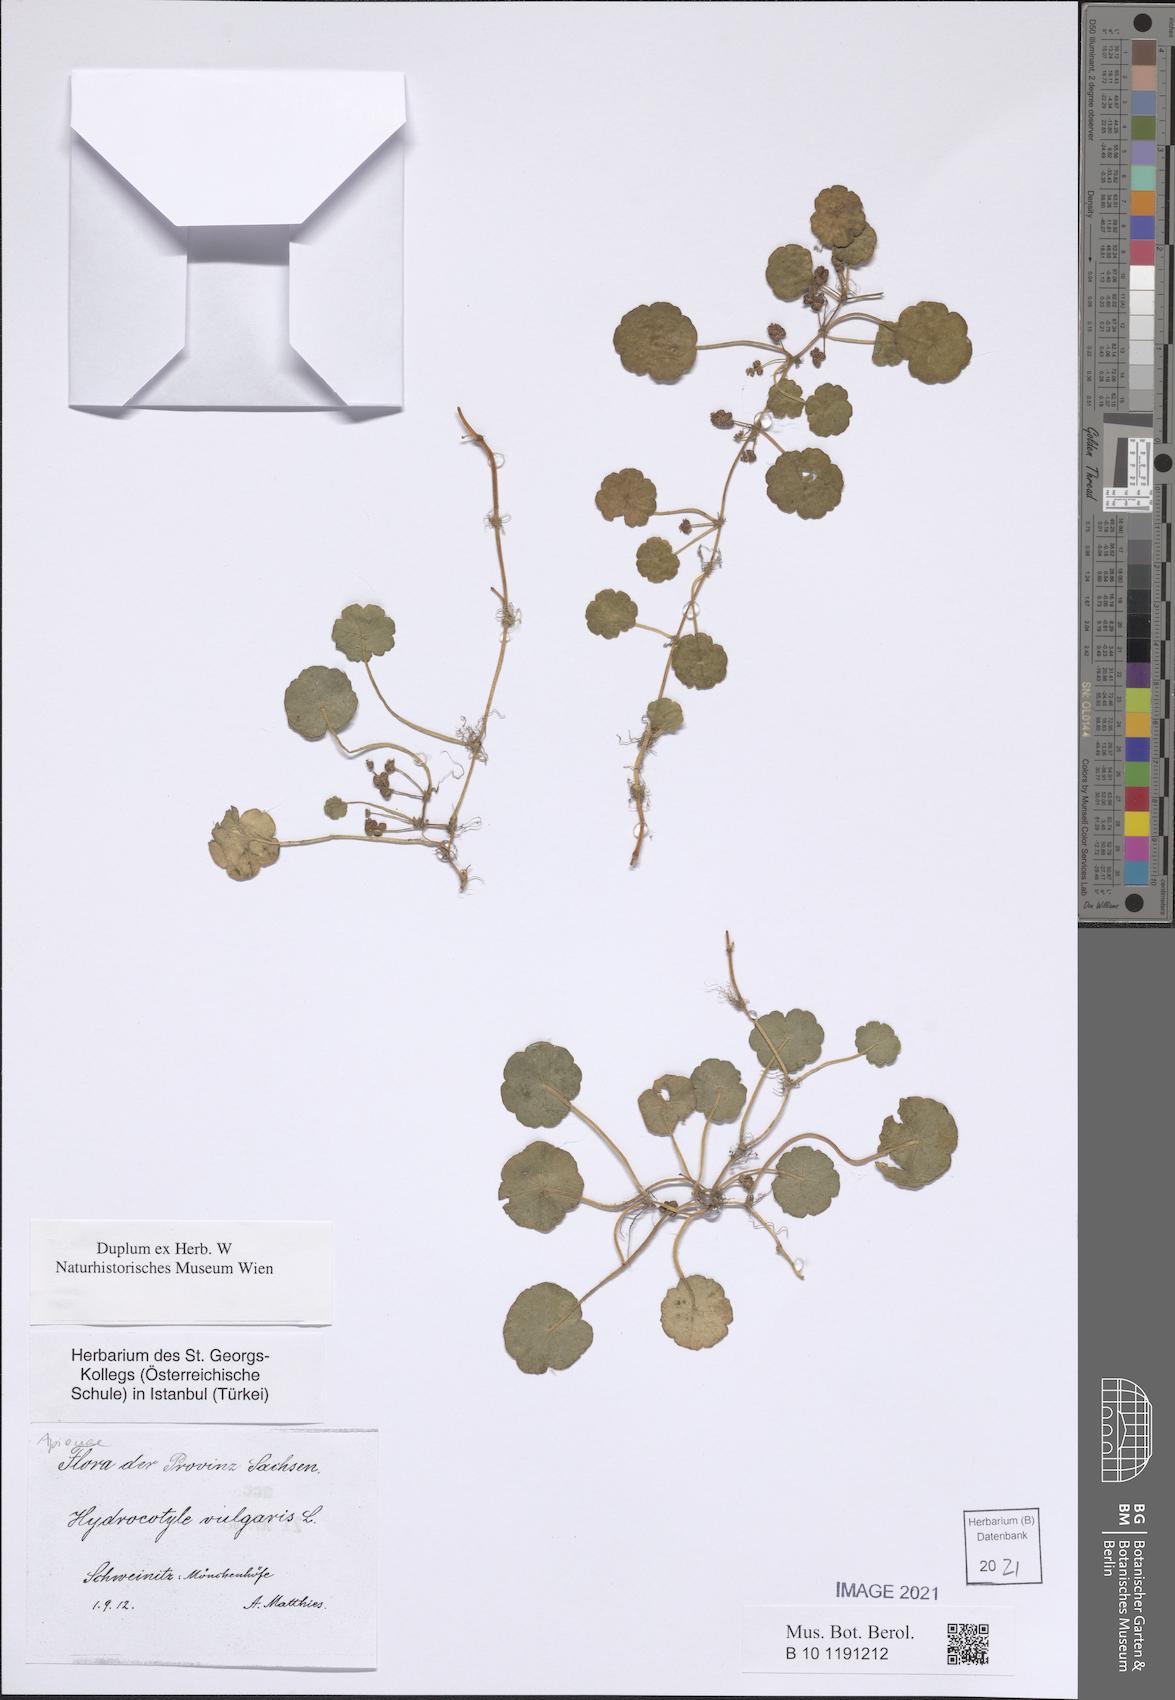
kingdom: Plantae
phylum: Tracheophyta
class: Magnoliopsida
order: Apiales
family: Araliaceae
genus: Hydrocotyle
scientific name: Hydrocotyle vulgaris
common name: Marsh pennywort
